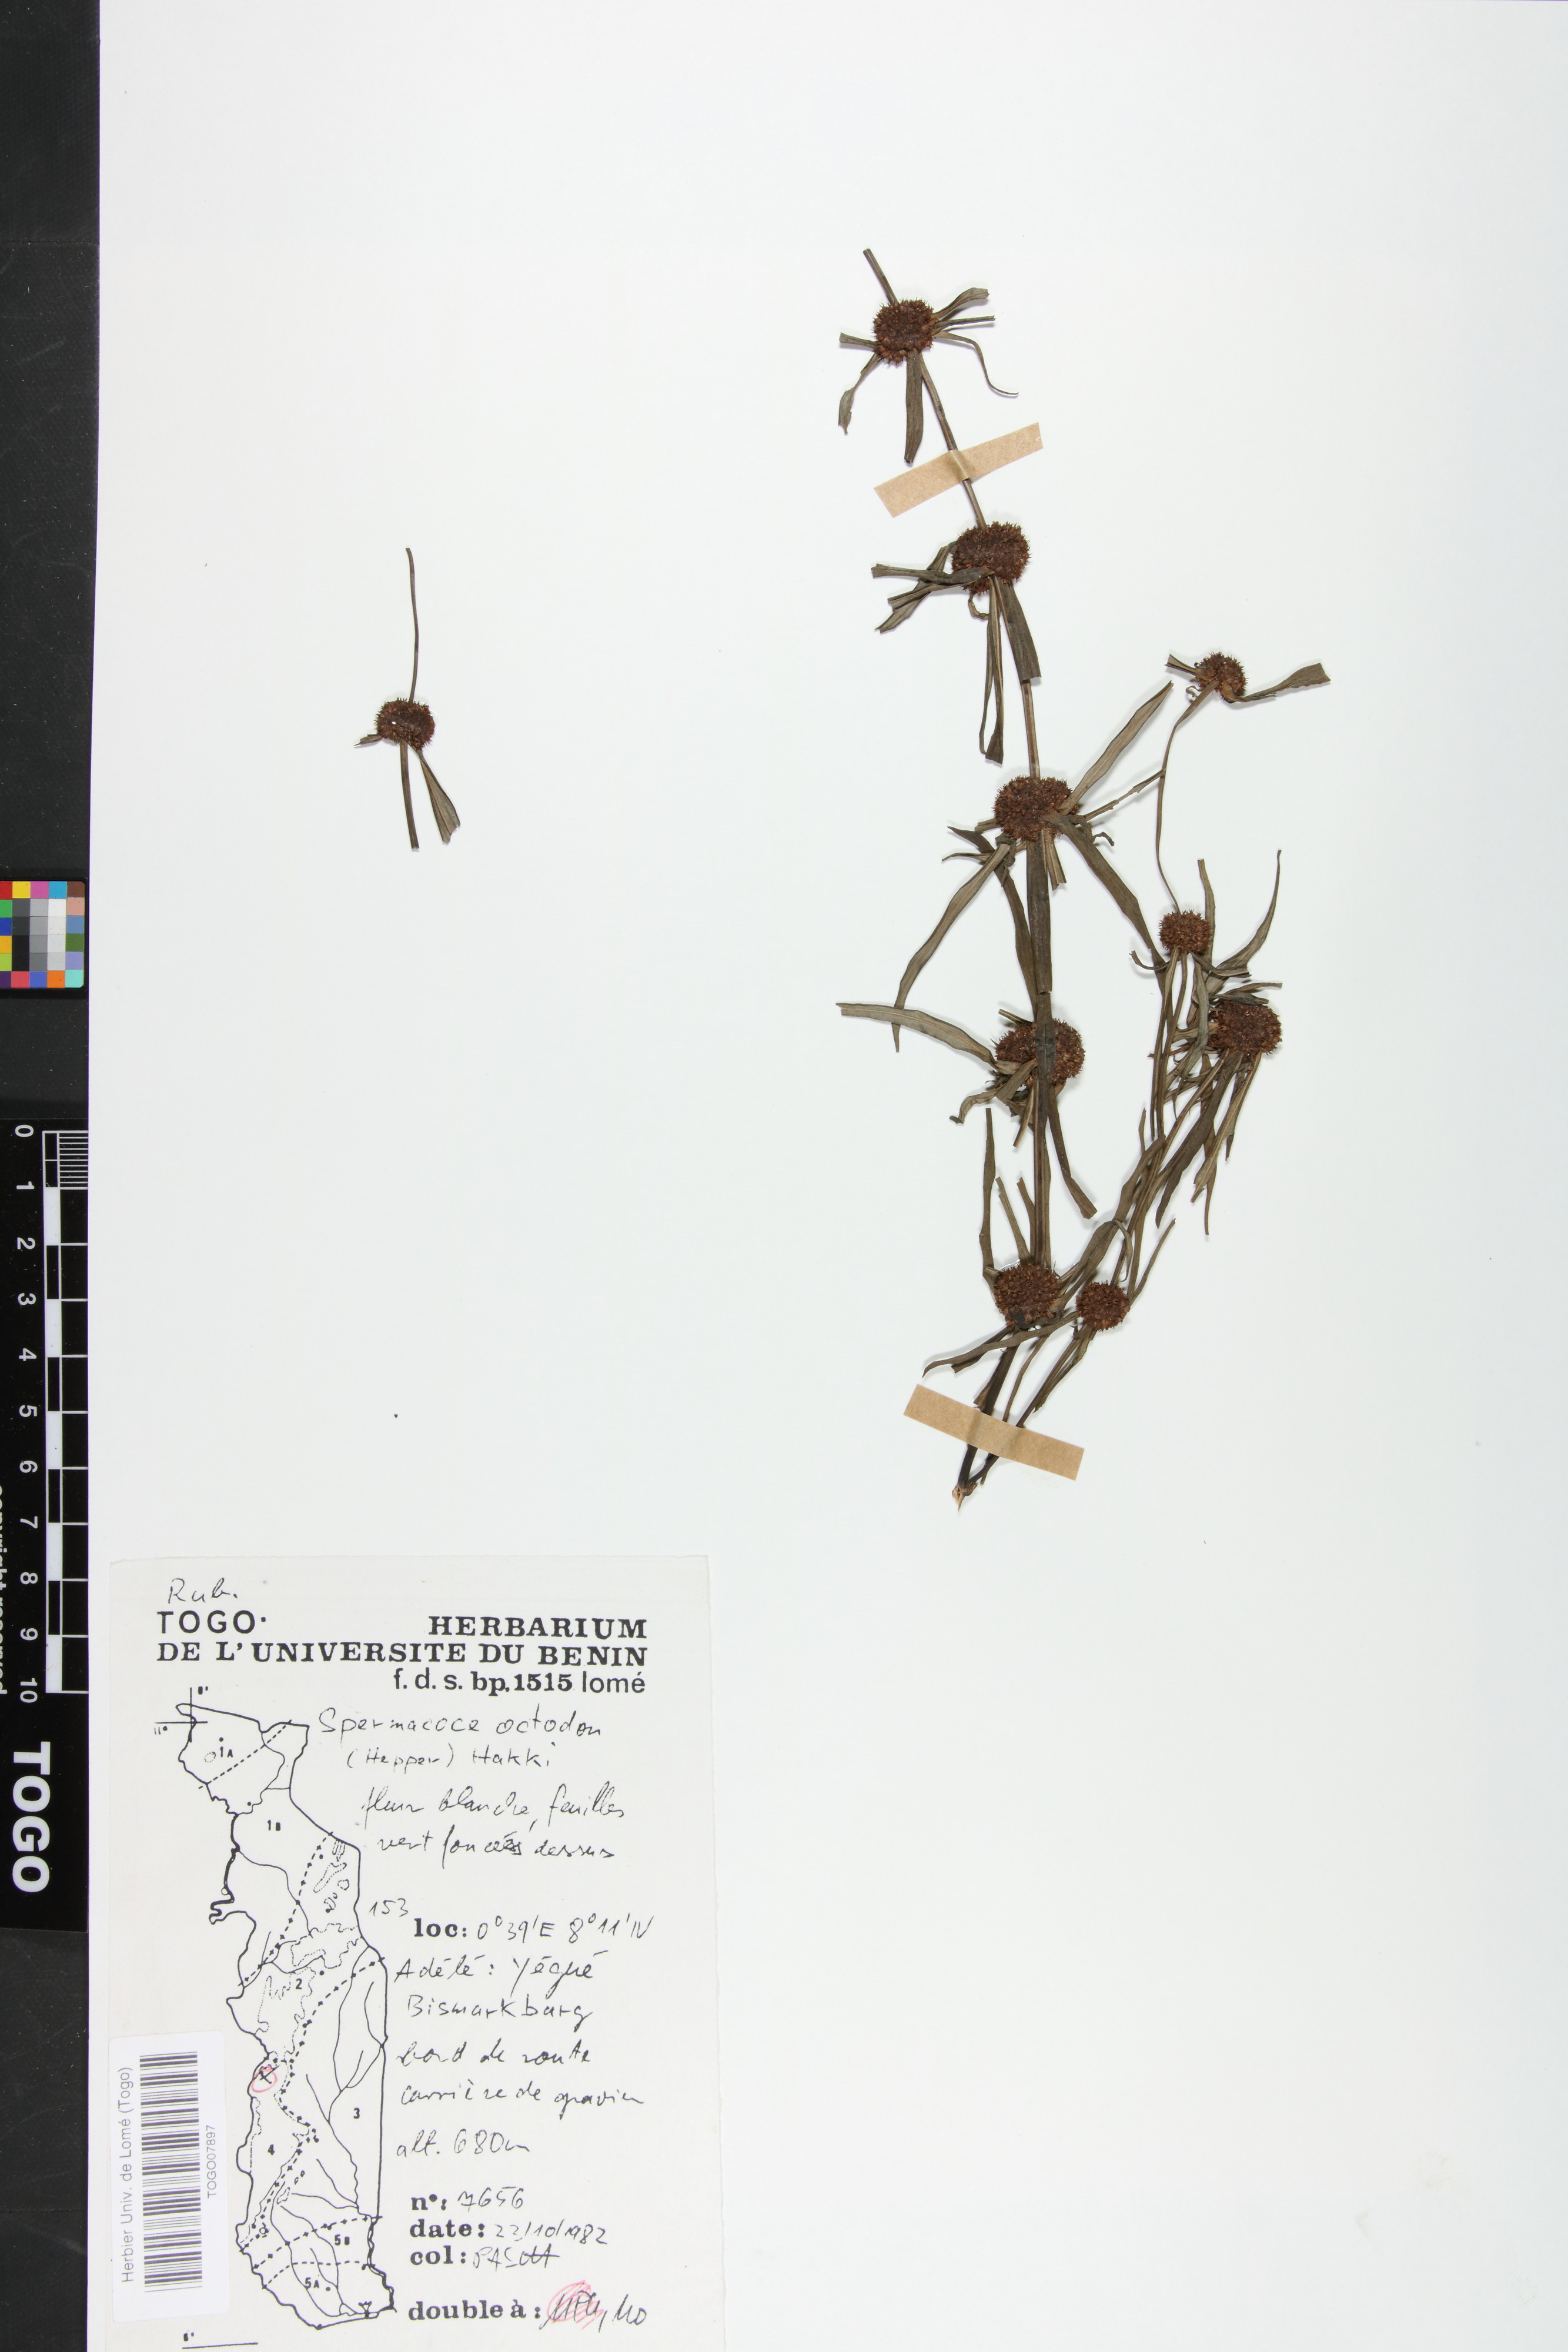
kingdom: Plantae
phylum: Tracheophyta
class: Magnoliopsida
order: Gentianales
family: Rubiaceae
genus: Spermacoce
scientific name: Spermacoce octodon
